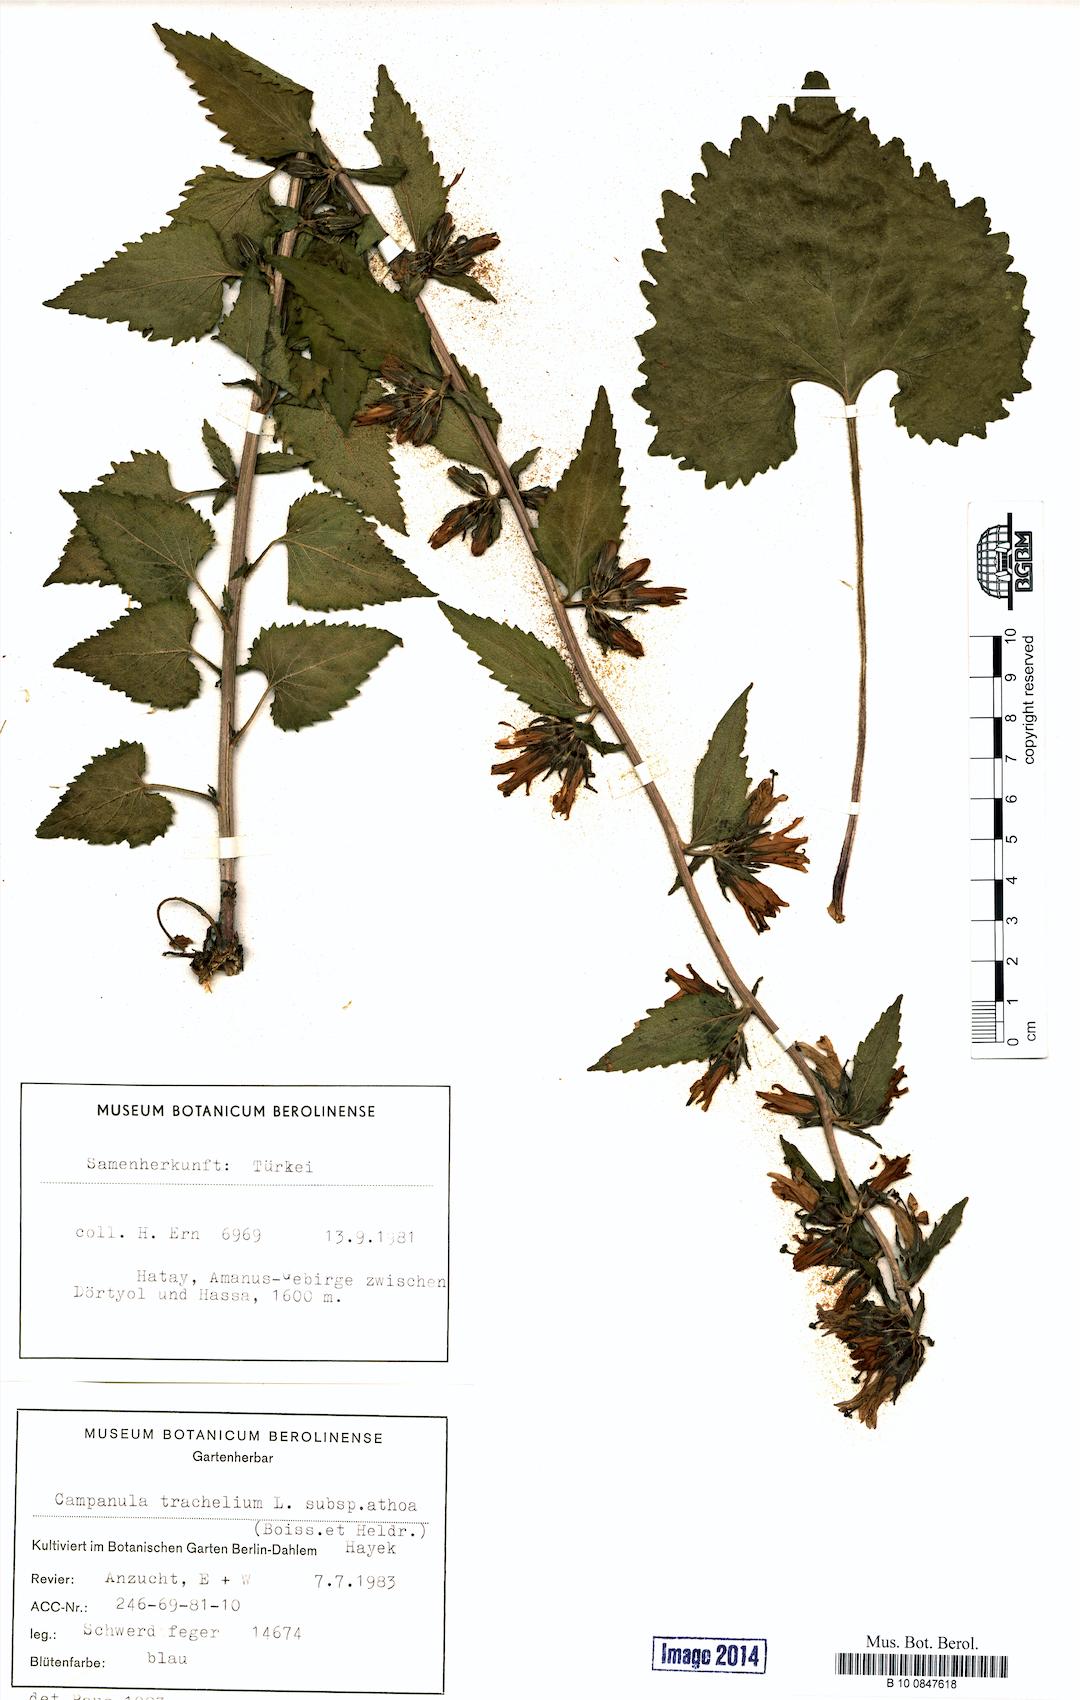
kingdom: Plantae
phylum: Tracheophyta
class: Magnoliopsida
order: Asterales
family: Campanulaceae
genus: Campanula
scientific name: Campanula trachelium
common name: Nettle-leaved bellflower
